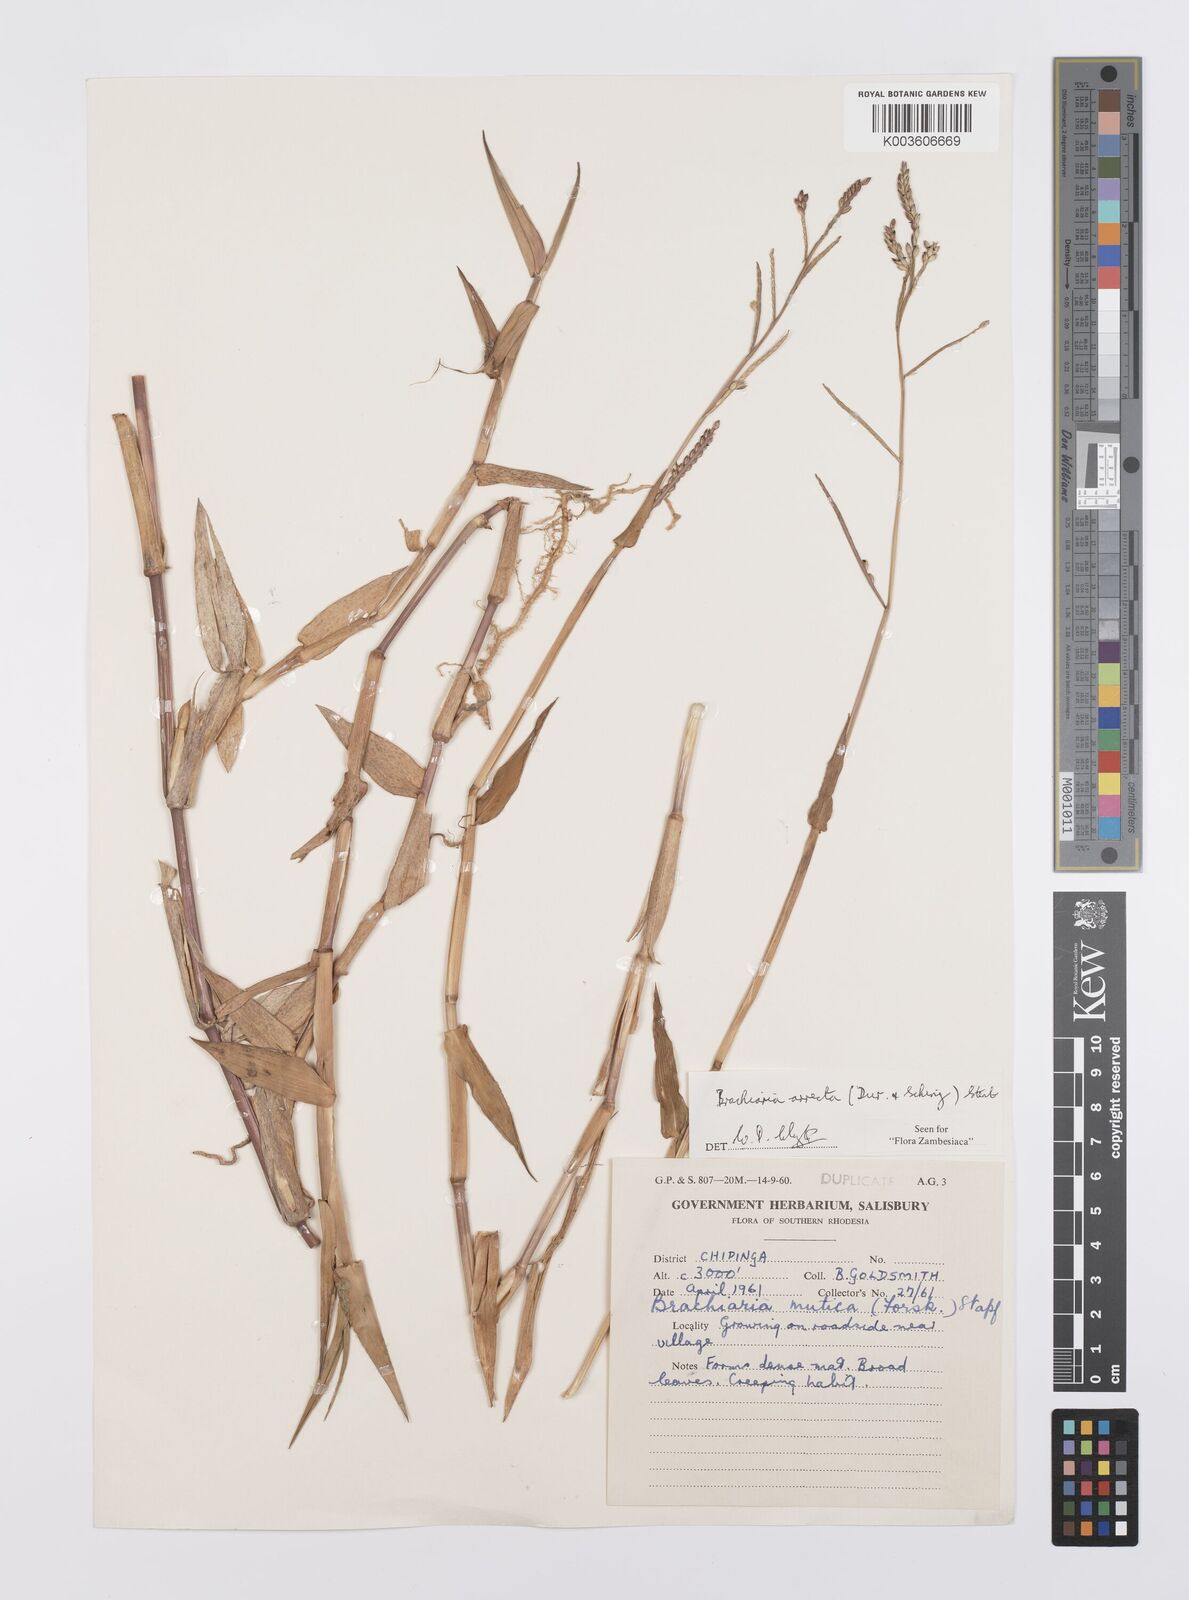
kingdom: Plantae
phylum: Tracheophyta
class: Liliopsida
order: Poales
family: Poaceae
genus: Urochloa
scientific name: Urochloa arrecta
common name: African signalgrass
